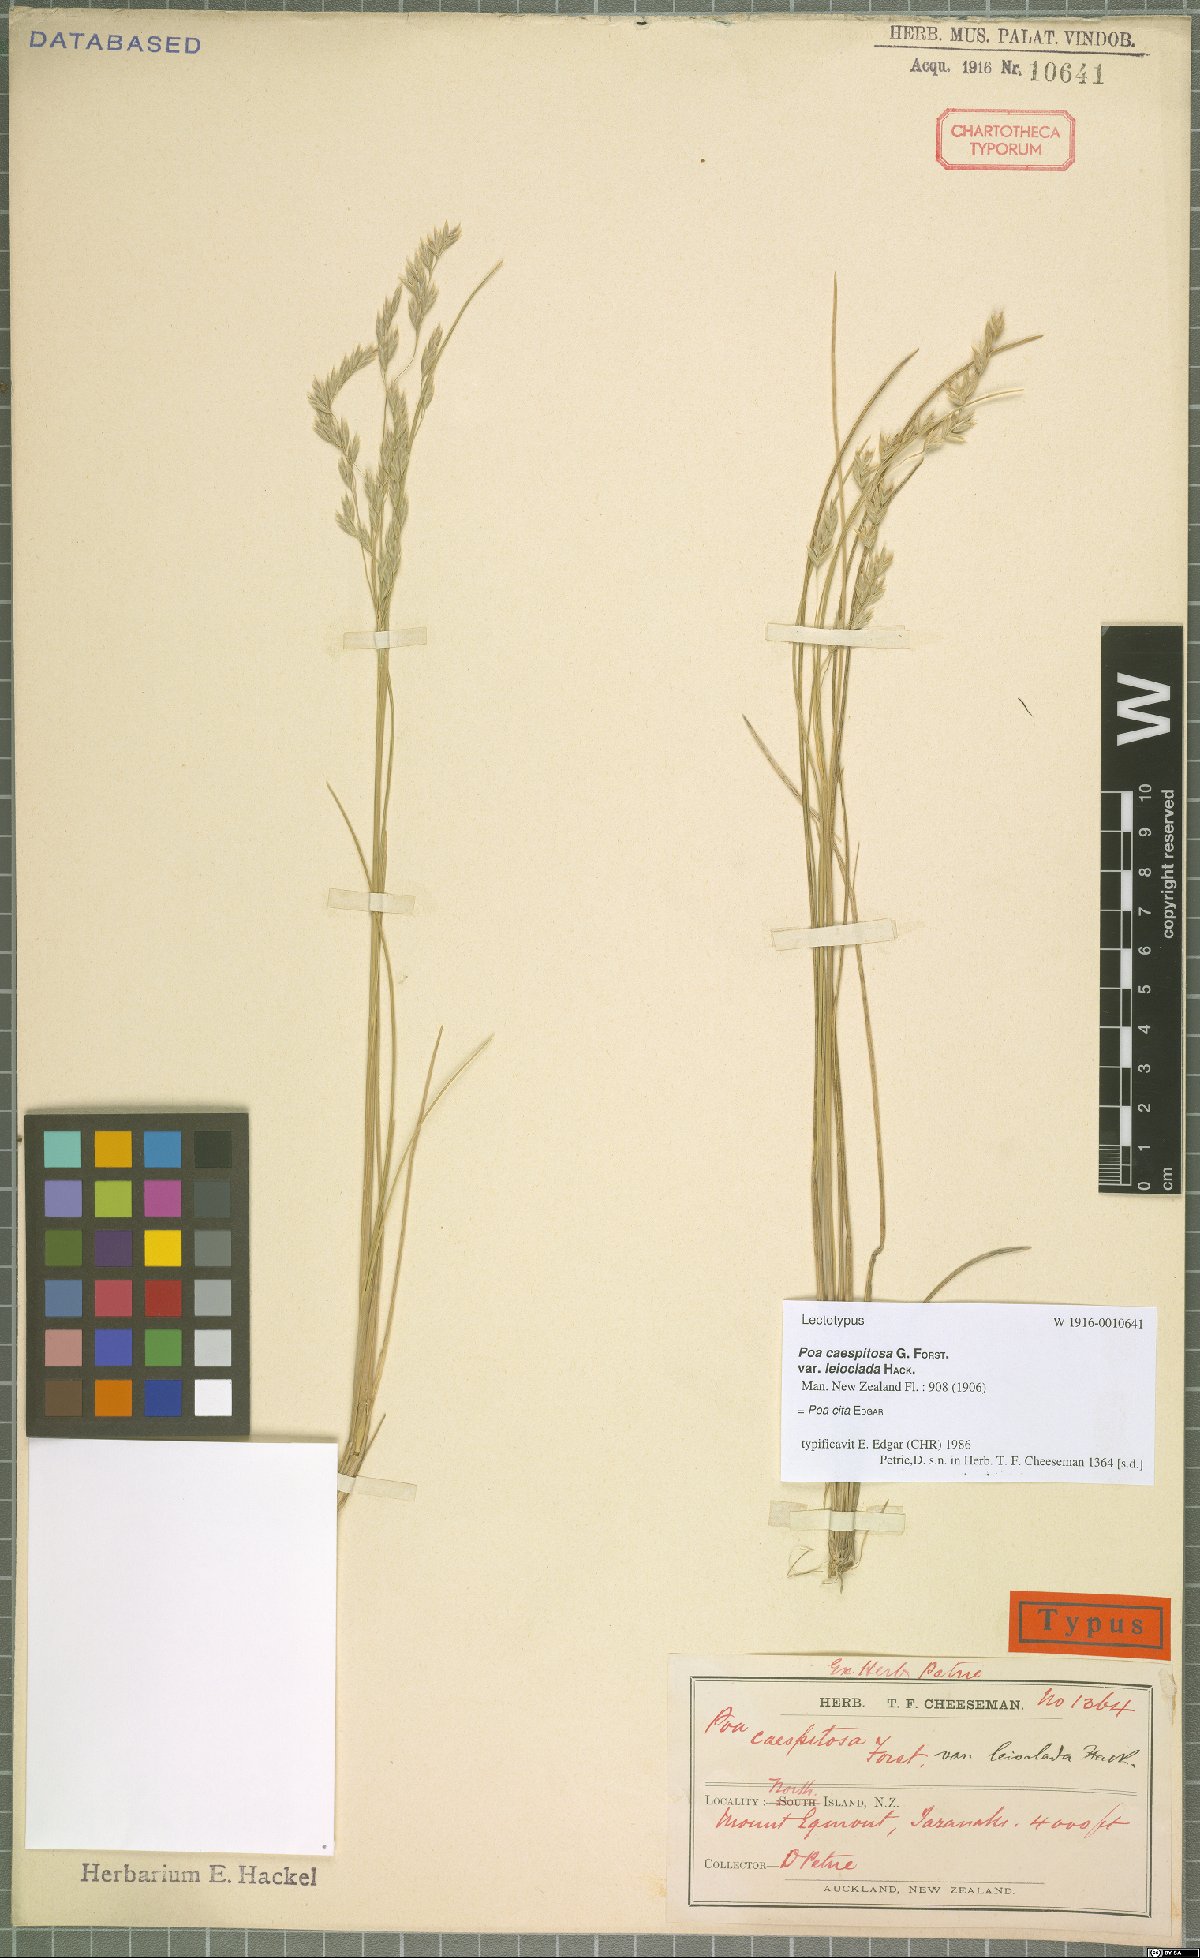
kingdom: Plantae
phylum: Tracheophyta
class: Liliopsida
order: Poales
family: Poaceae
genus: Poa
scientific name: Poa cita
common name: Silver tussock
